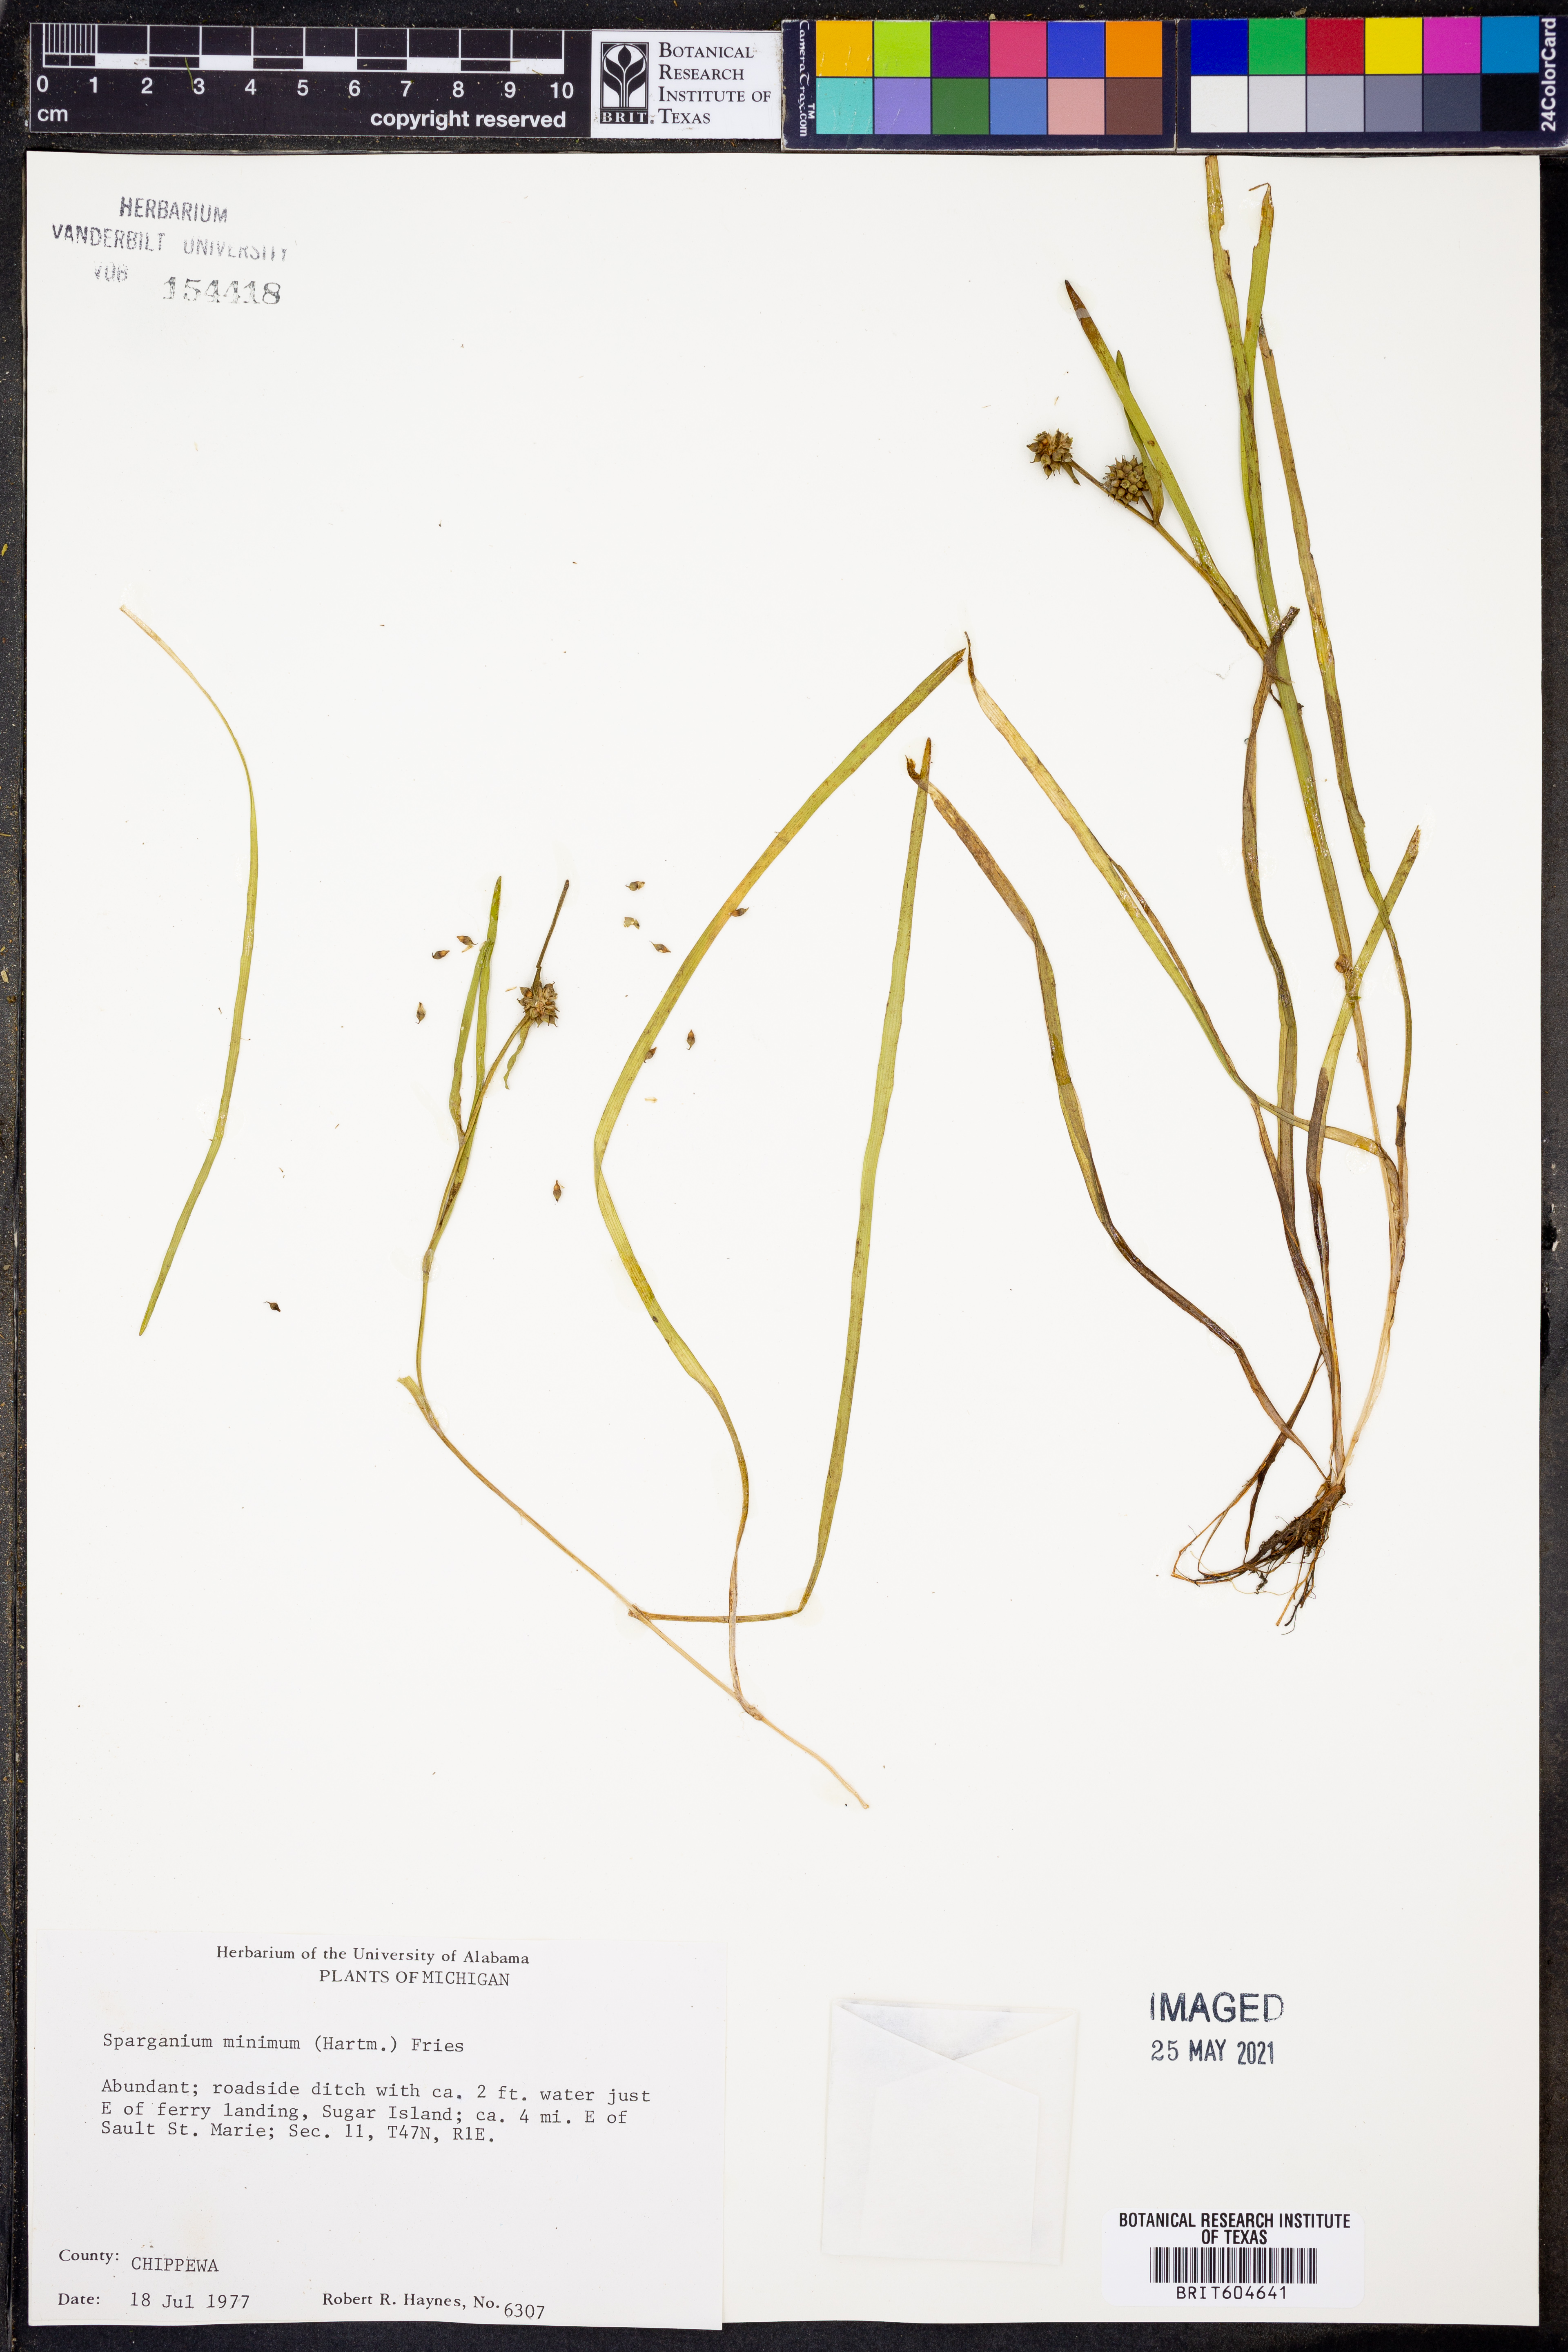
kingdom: Plantae
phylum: Tracheophyta
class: Liliopsida
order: Poales
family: Typhaceae
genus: Sparganium
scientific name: Sparganium natans
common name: Least bur-reed
